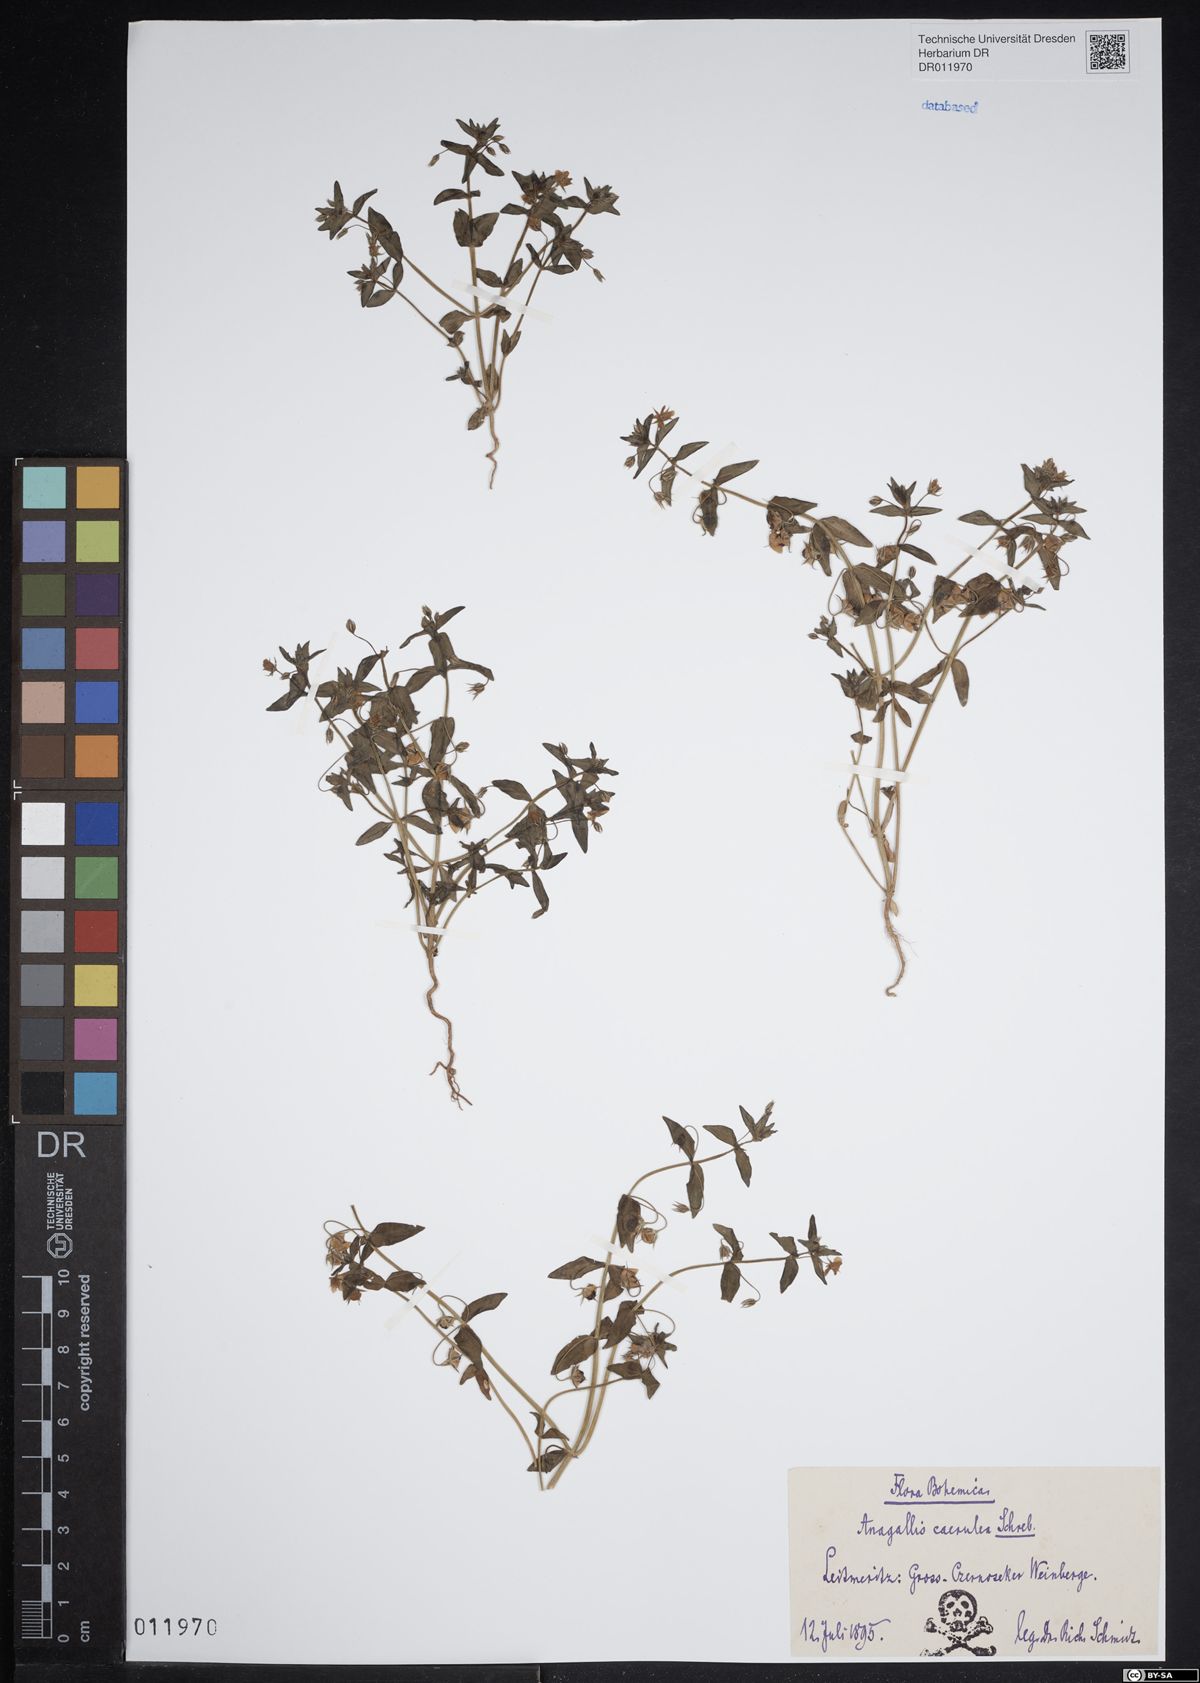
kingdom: Plantae
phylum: Tracheophyta
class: Magnoliopsida
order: Ericales
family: Primulaceae
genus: Lysimachia
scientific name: Lysimachia foemina
